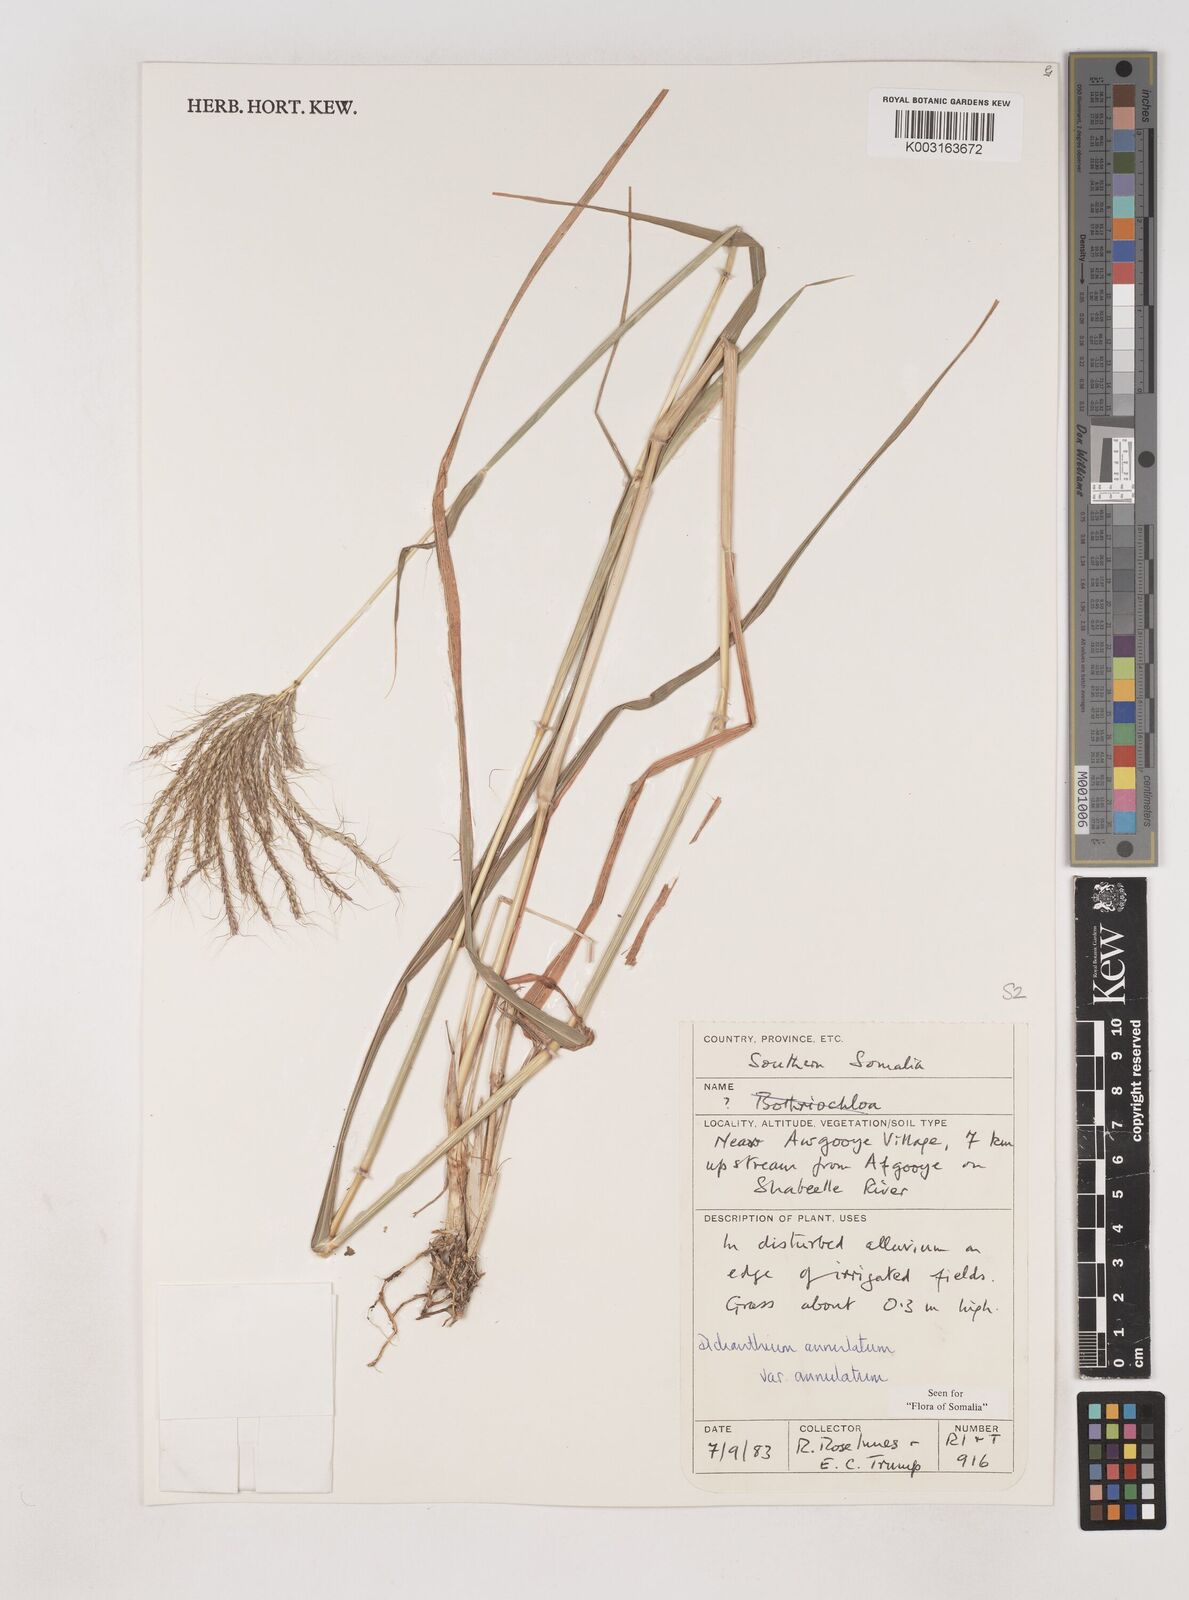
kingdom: Plantae
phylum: Tracheophyta
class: Liliopsida
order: Poales
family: Poaceae
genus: Dichanthium
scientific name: Dichanthium annulatum
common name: Kleberg's bluestem
